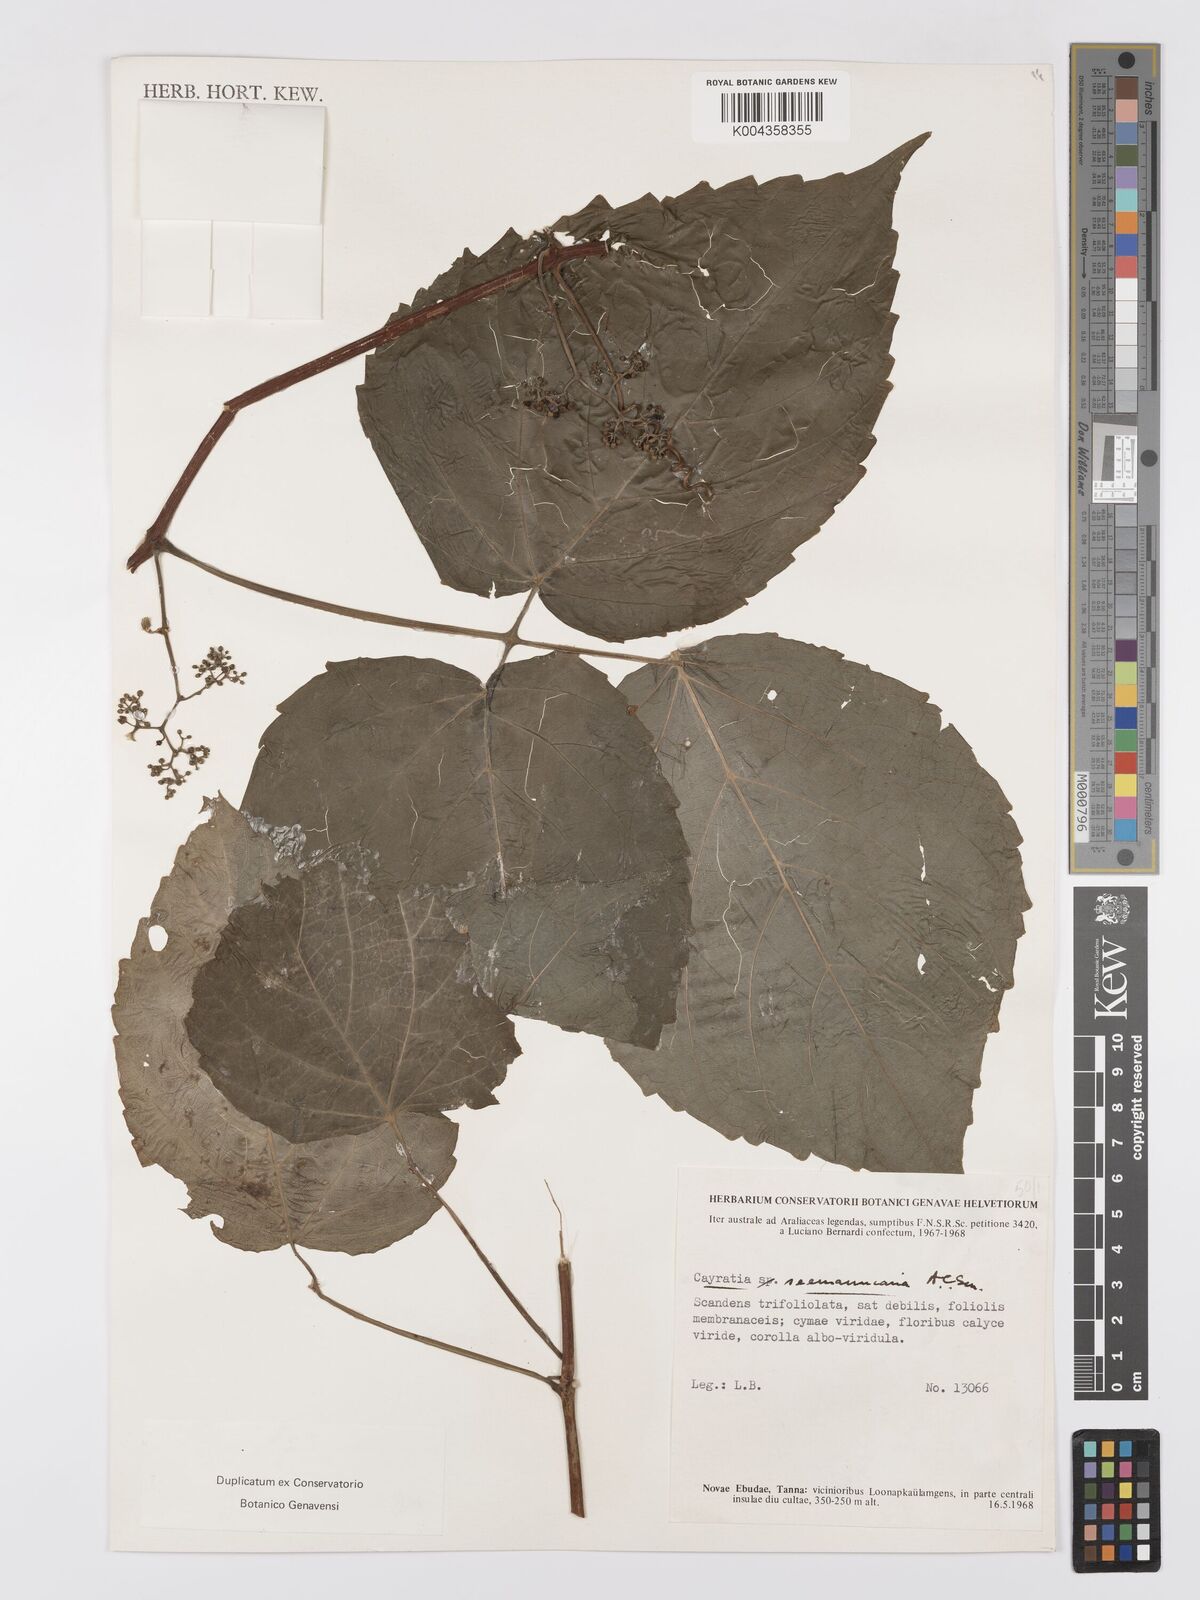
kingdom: Plantae
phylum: Tracheophyta
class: Magnoliopsida
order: Vitales
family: Vitaceae
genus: Cayratia
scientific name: Cayratia seemanniana
